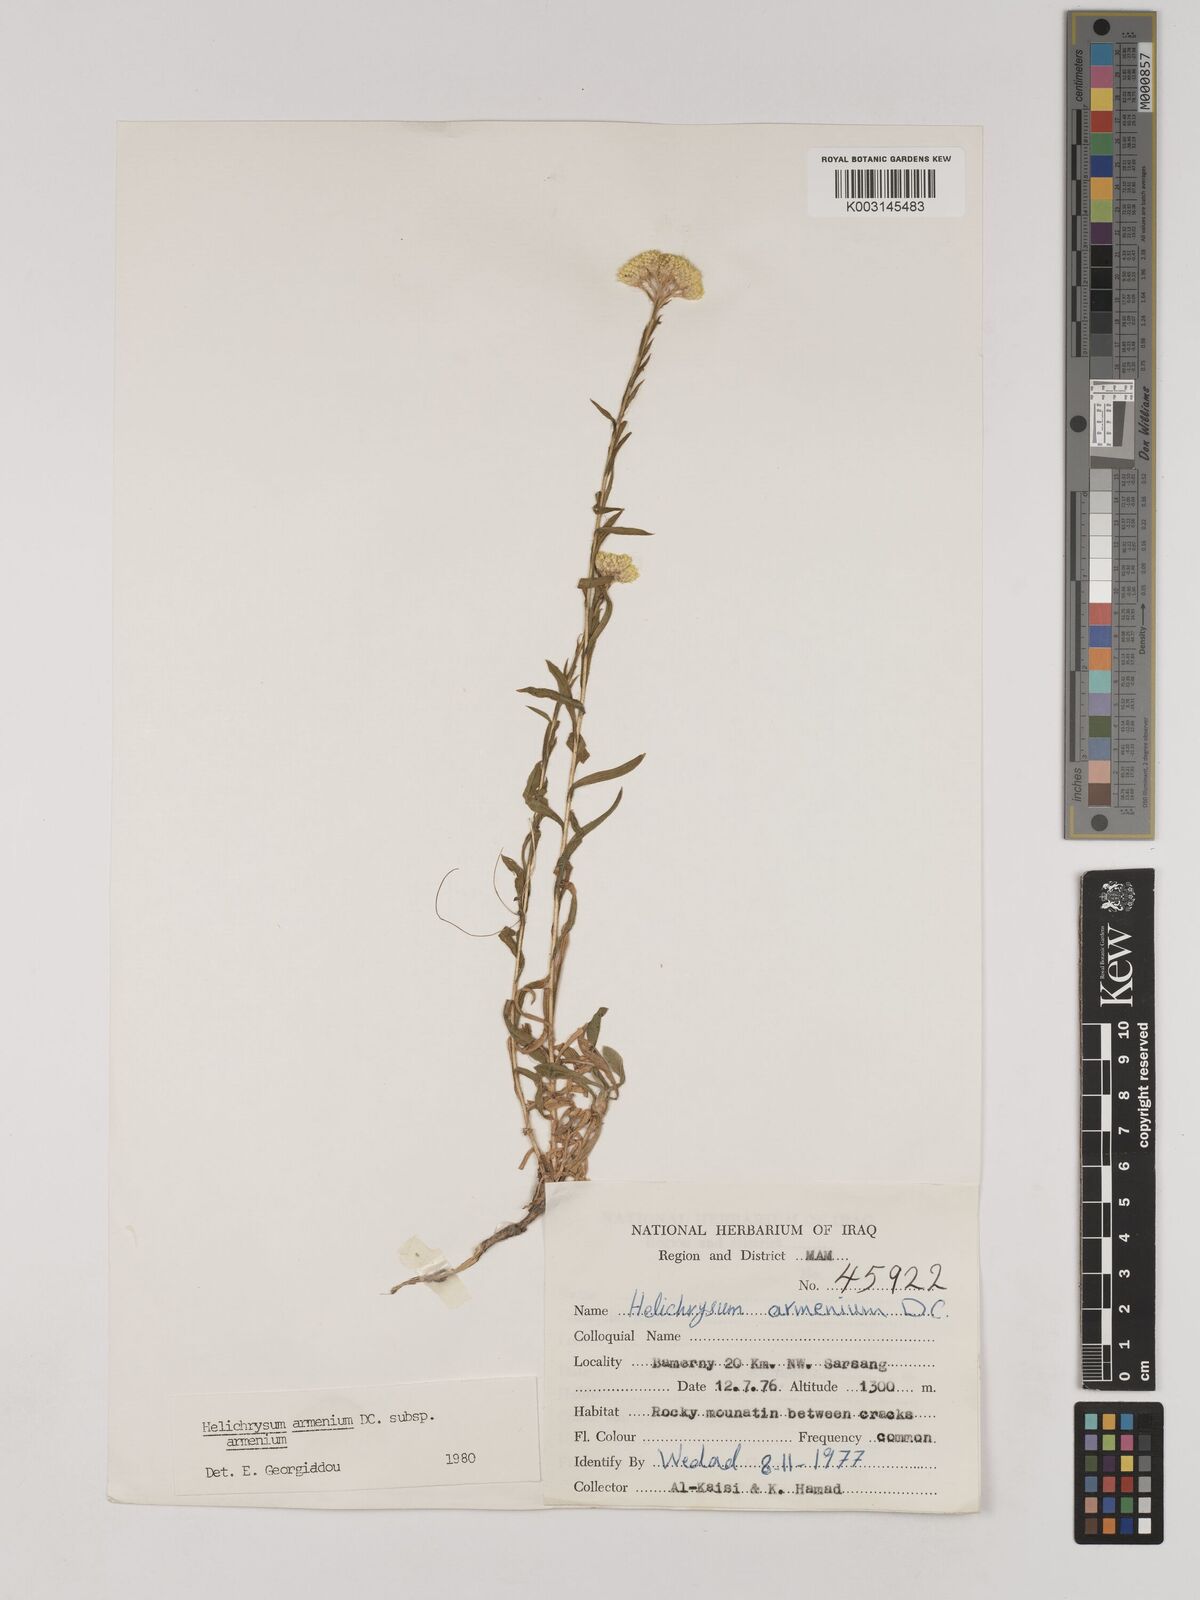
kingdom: Plantae
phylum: Tracheophyta
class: Magnoliopsida
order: Asterales
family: Asteraceae
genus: Helichrysum
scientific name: Helichrysum armenium
